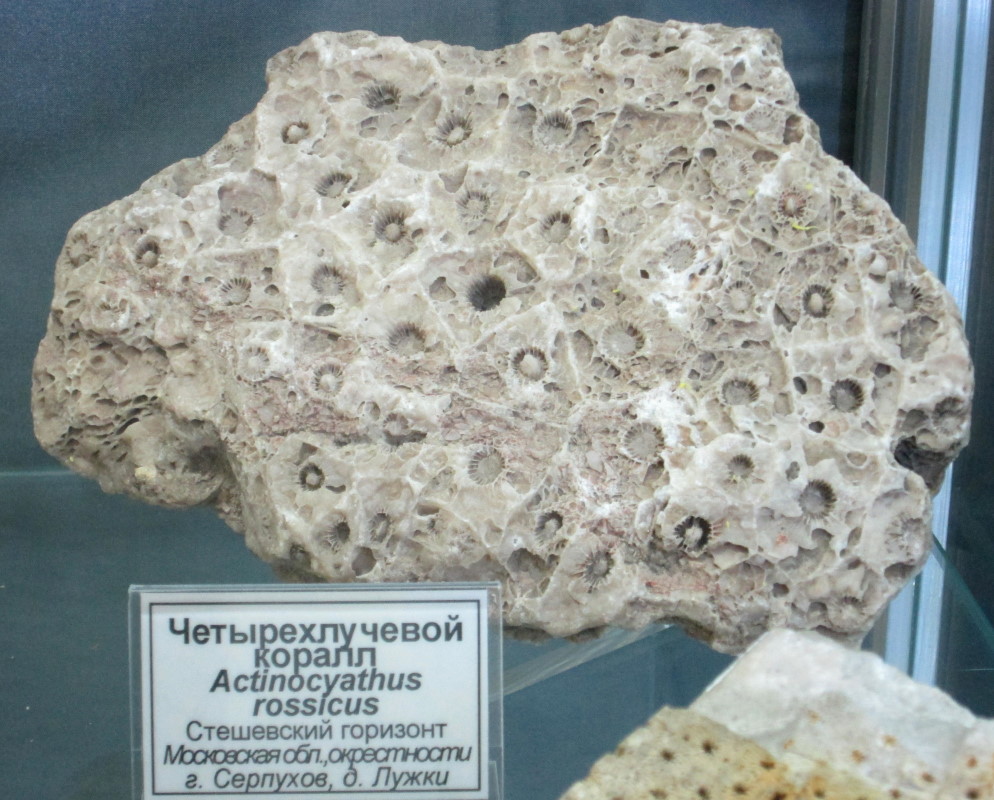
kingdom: Animalia
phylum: Cnidaria
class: Anthozoa
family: Axophyllidae
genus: Actinocyathus
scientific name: Actinocyathus
